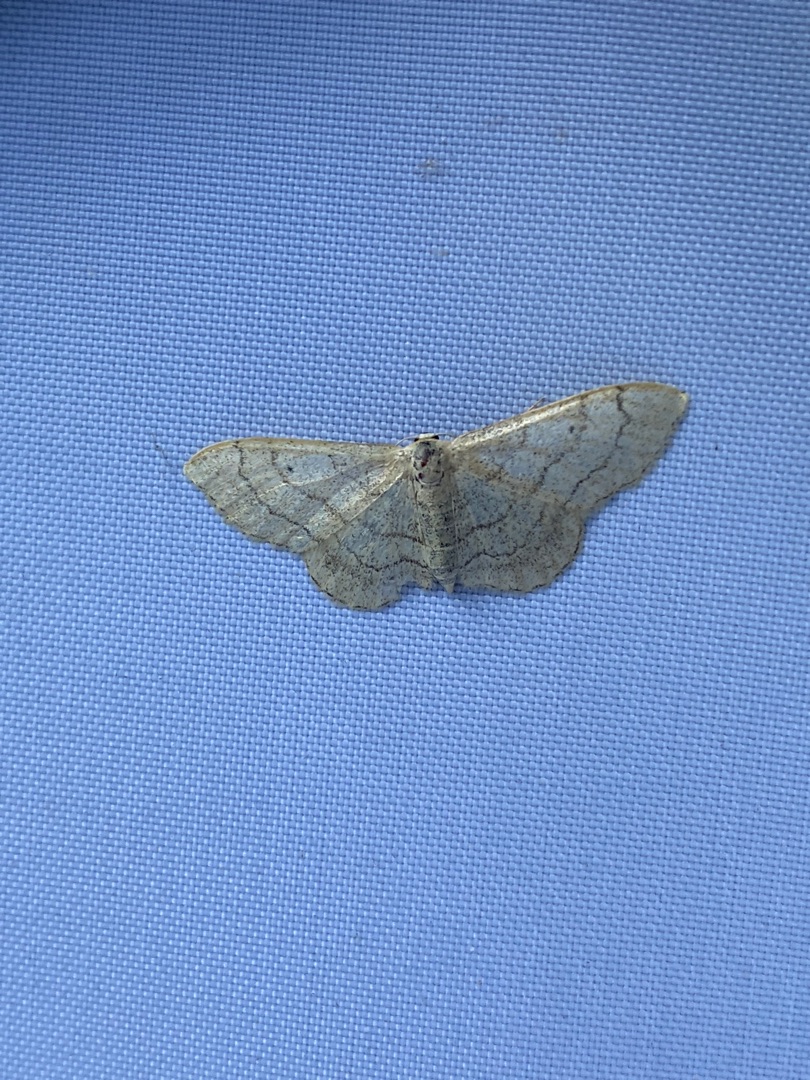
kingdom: Animalia
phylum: Arthropoda
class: Insecta
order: Lepidoptera
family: Geometridae
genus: Idaea
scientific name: Idaea aversata
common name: Vinkelstreget løvmåler
